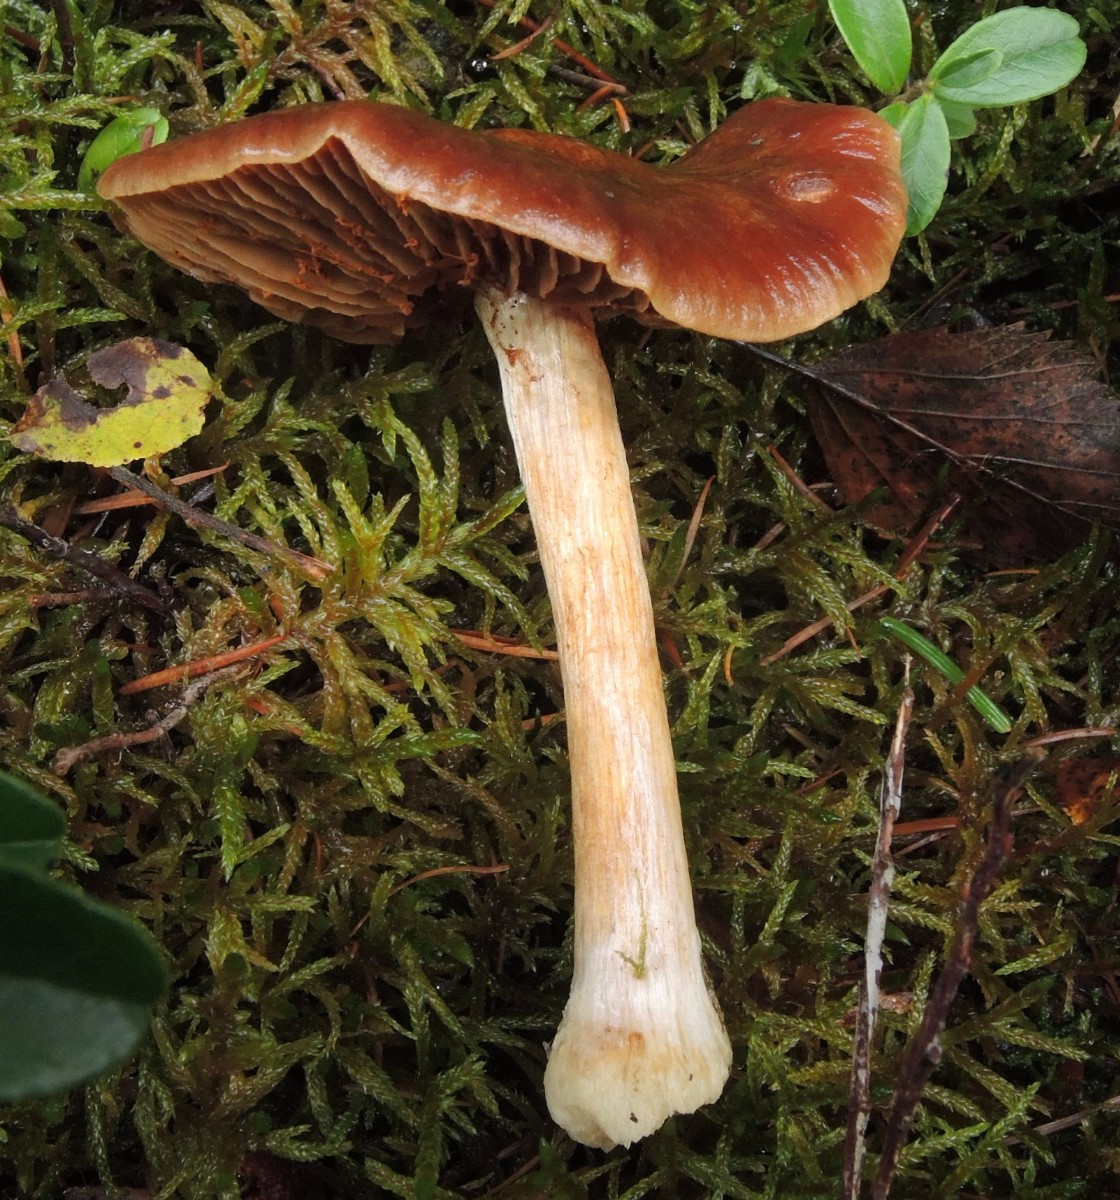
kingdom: Fungi
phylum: Basidiomycota
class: Agaricomycetes
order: Agaricales
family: Cortinariaceae
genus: Thaxterogaster
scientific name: Thaxterogaster sphagnophilus
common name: vandplettet slørhat
